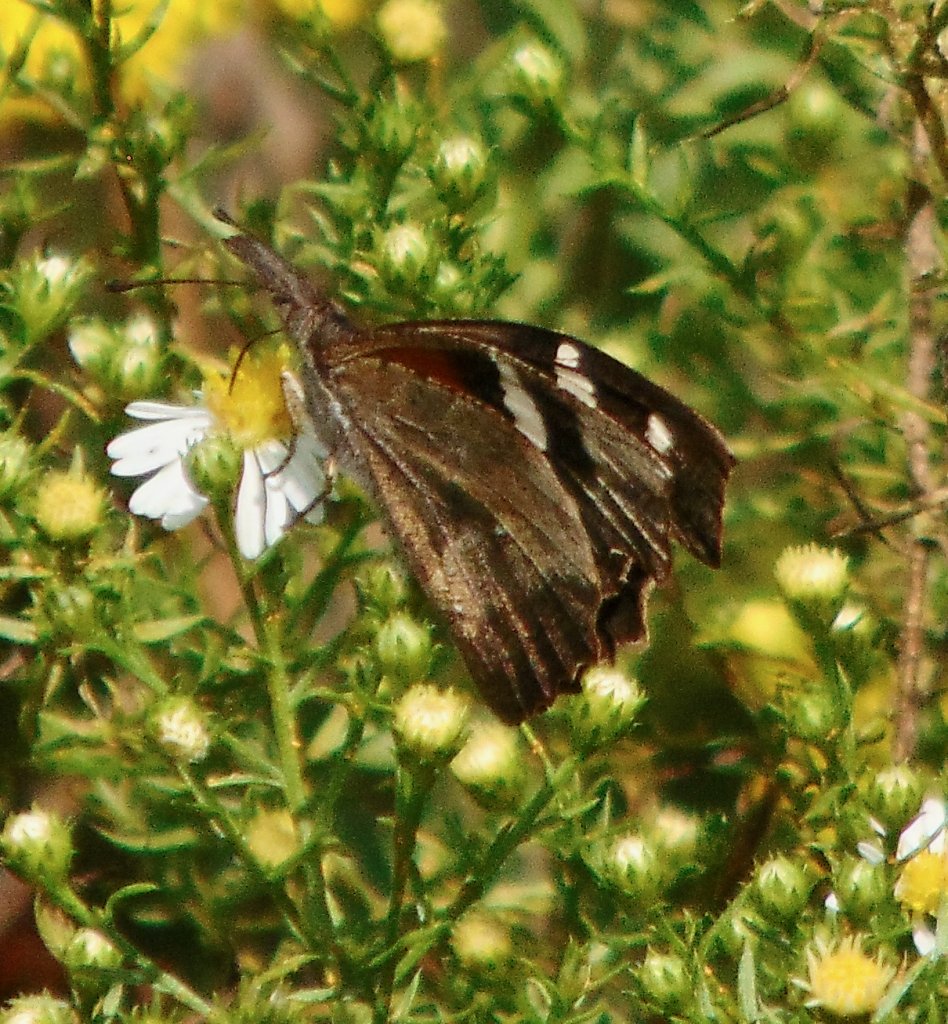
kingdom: Animalia
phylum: Arthropoda
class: Insecta
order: Lepidoptera
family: Nymphalidae
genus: Libytheana
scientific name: Libytheana carinenta
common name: American Snout
